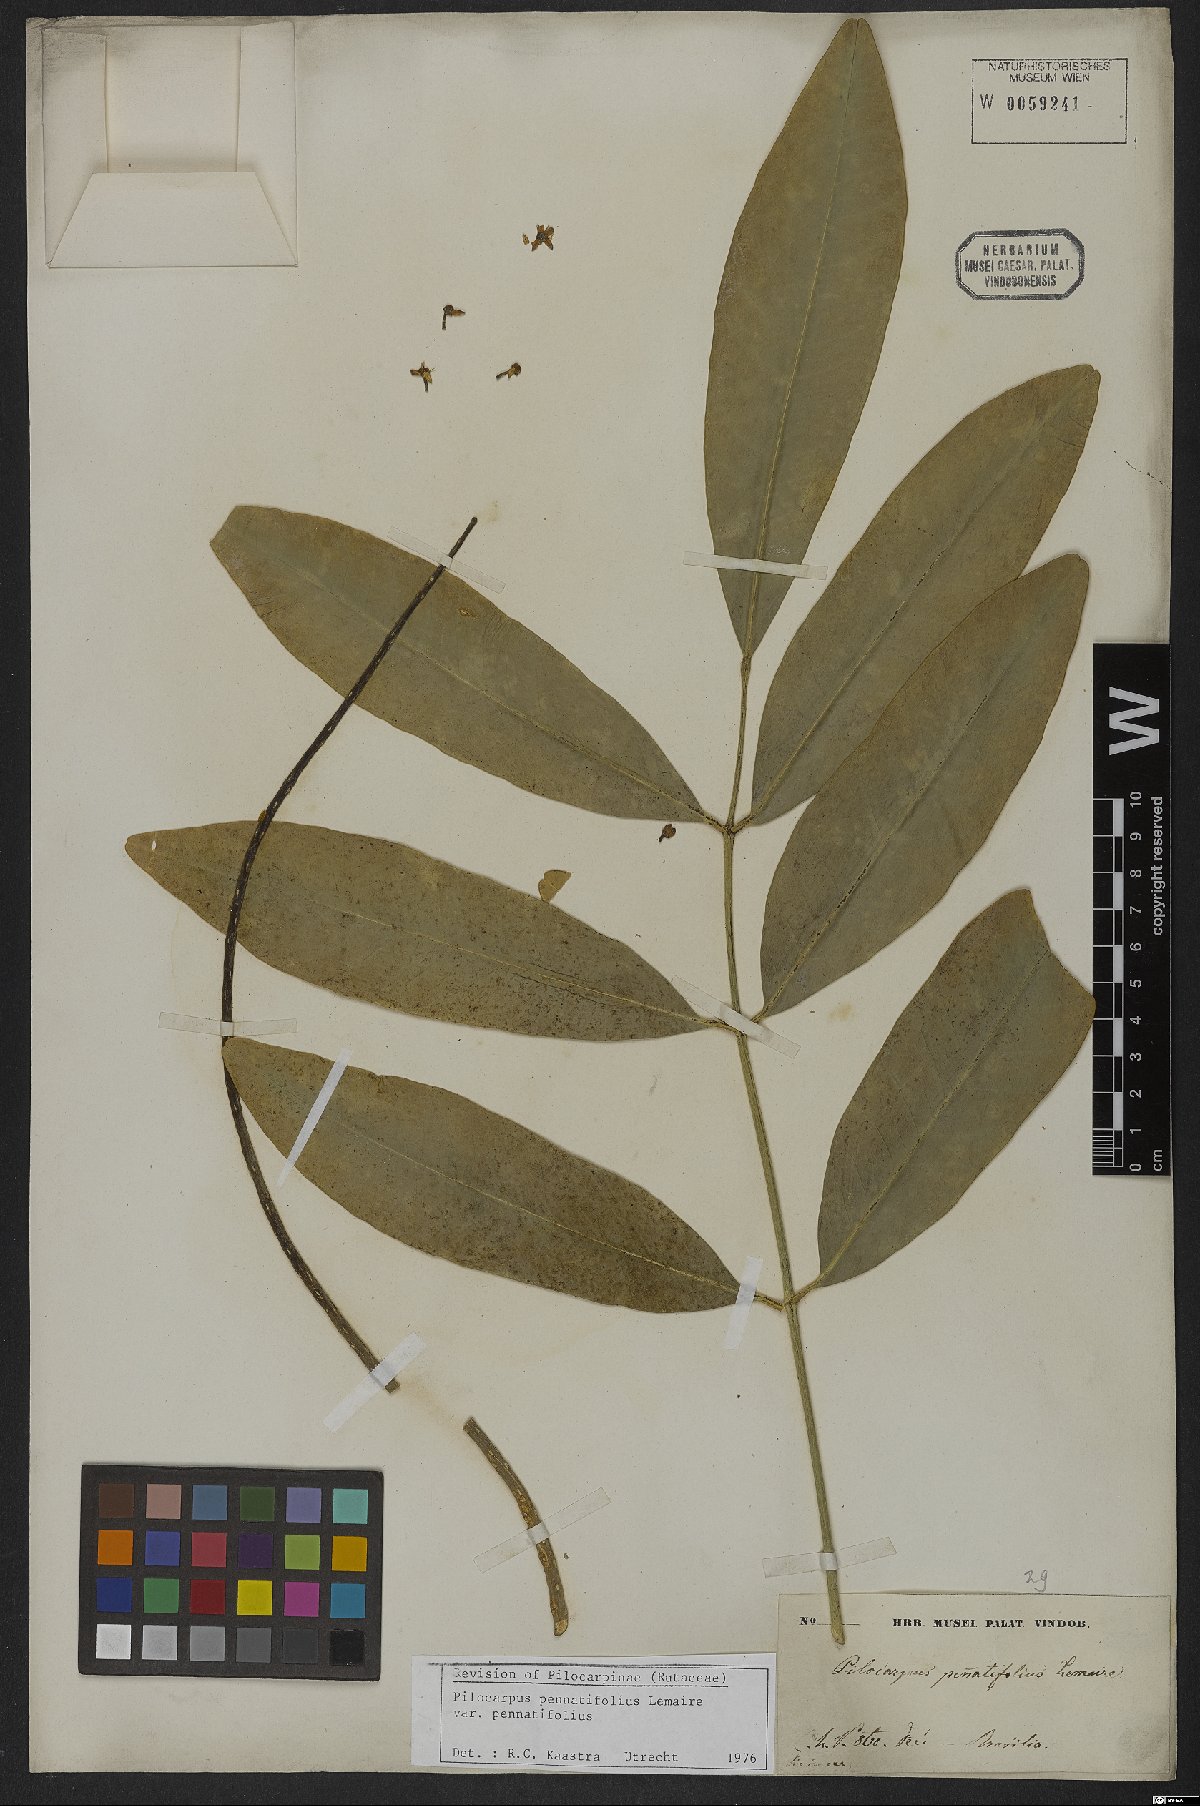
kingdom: Plantae
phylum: Tracheophyta
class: Magnoliopsida
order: Sapindales
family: Rutaceae
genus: Pilocarpus
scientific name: Pilocarpus pennatifolius
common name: Paraguay jaborandi
